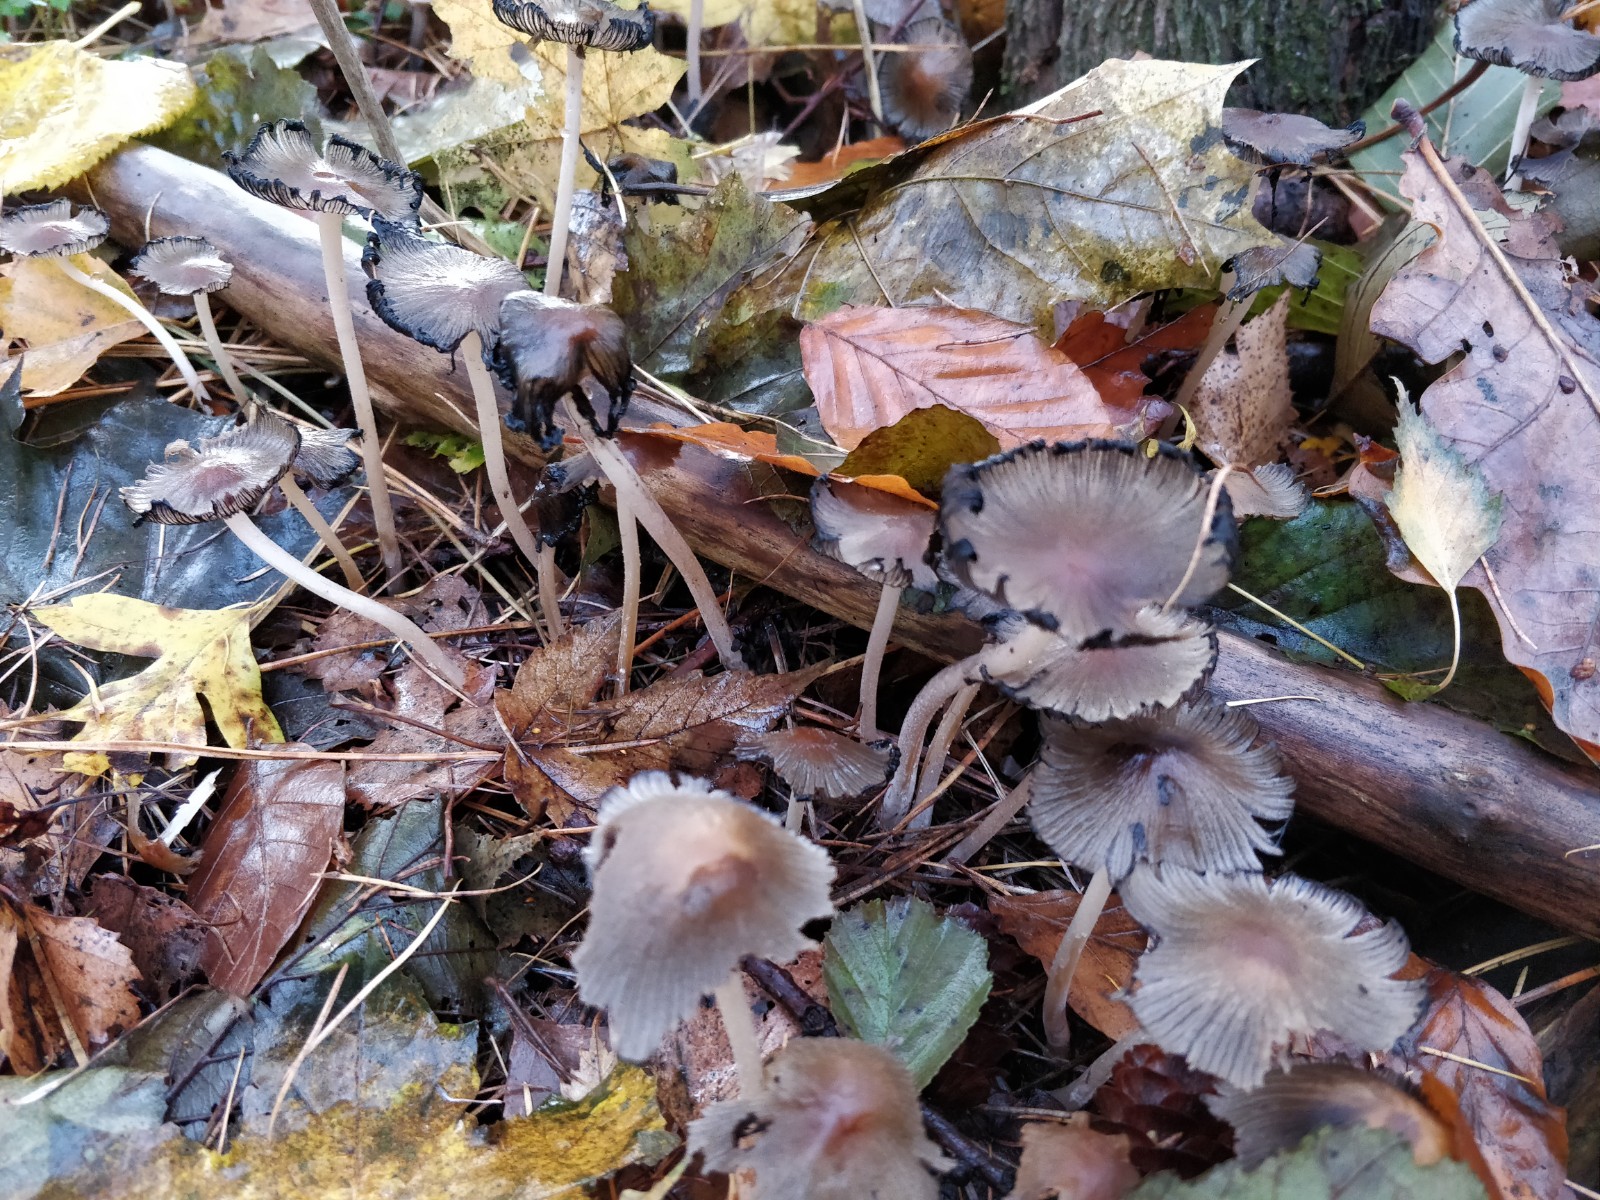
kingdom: Fungi
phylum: Basidiomycota
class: Agaricomycetes
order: Agaricales
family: Psathyrellaceae
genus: Coprinellus
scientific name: Coprinellus
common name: blækhat
